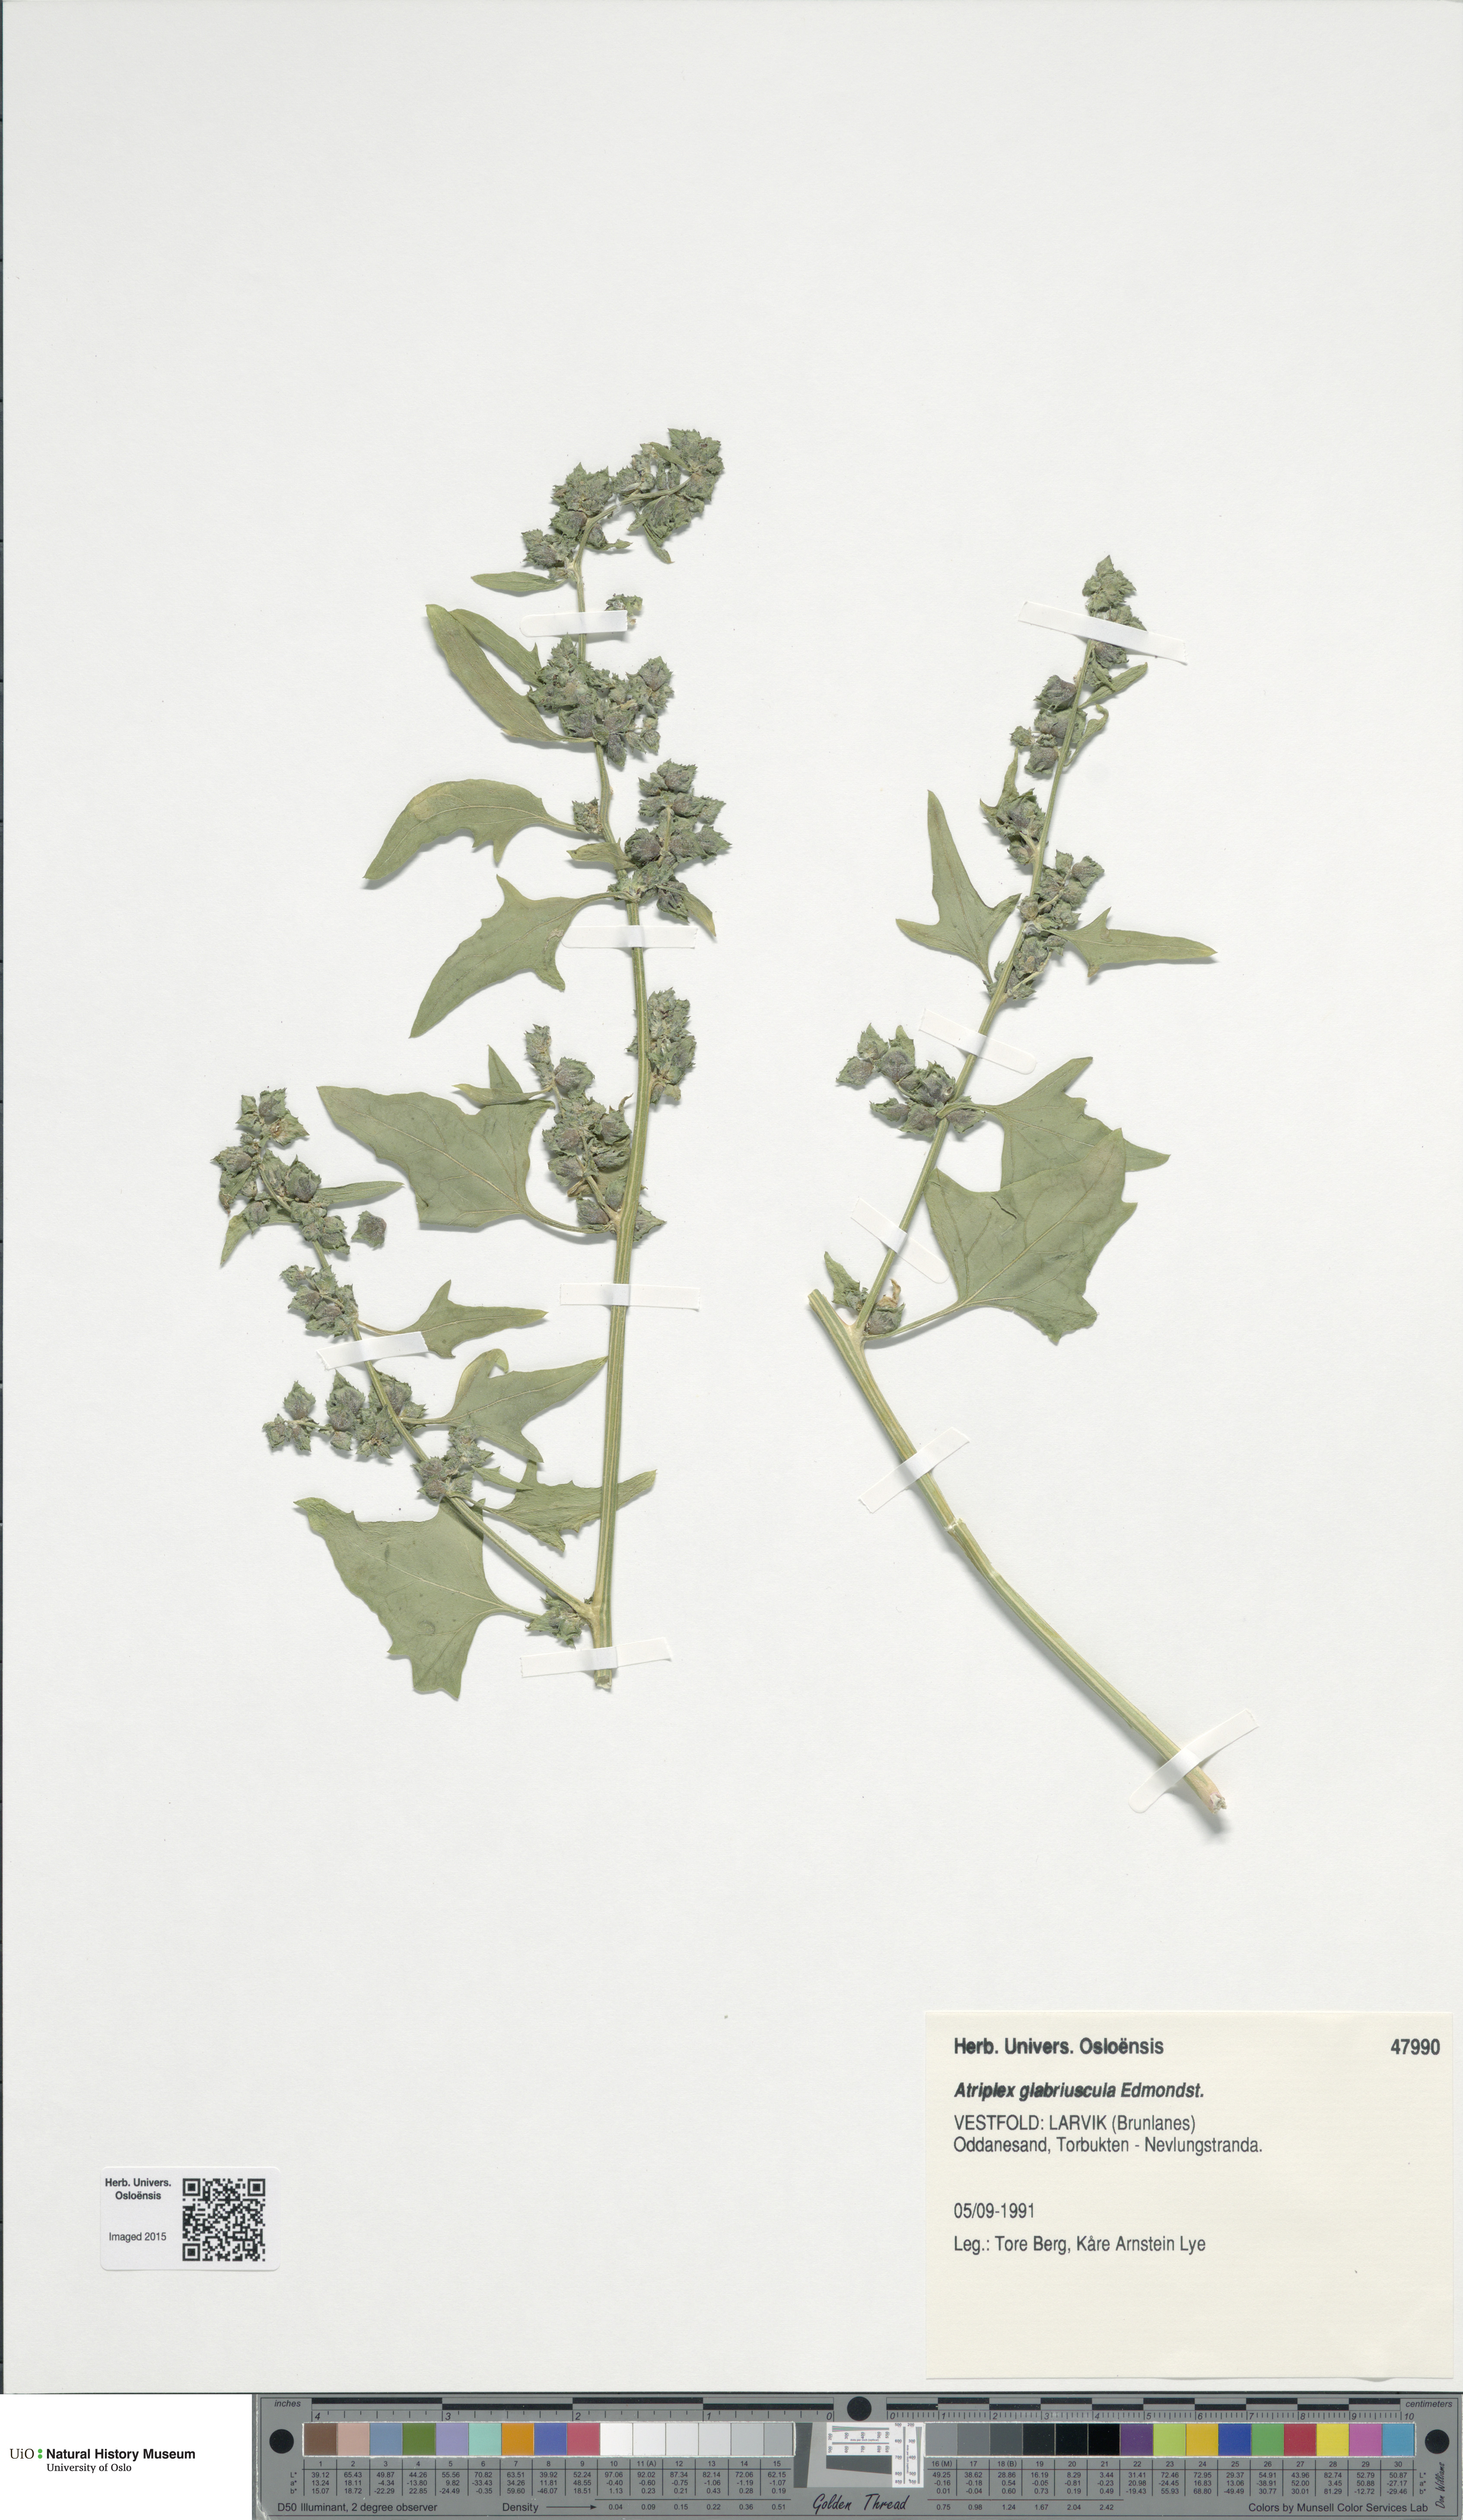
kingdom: Plantae
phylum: Tracheophyta
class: Magnoliopsida
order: Caryophyllales
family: Amaranthaceae
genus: Atriplex
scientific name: Atriplex glabriuscula
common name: Babington's orache
